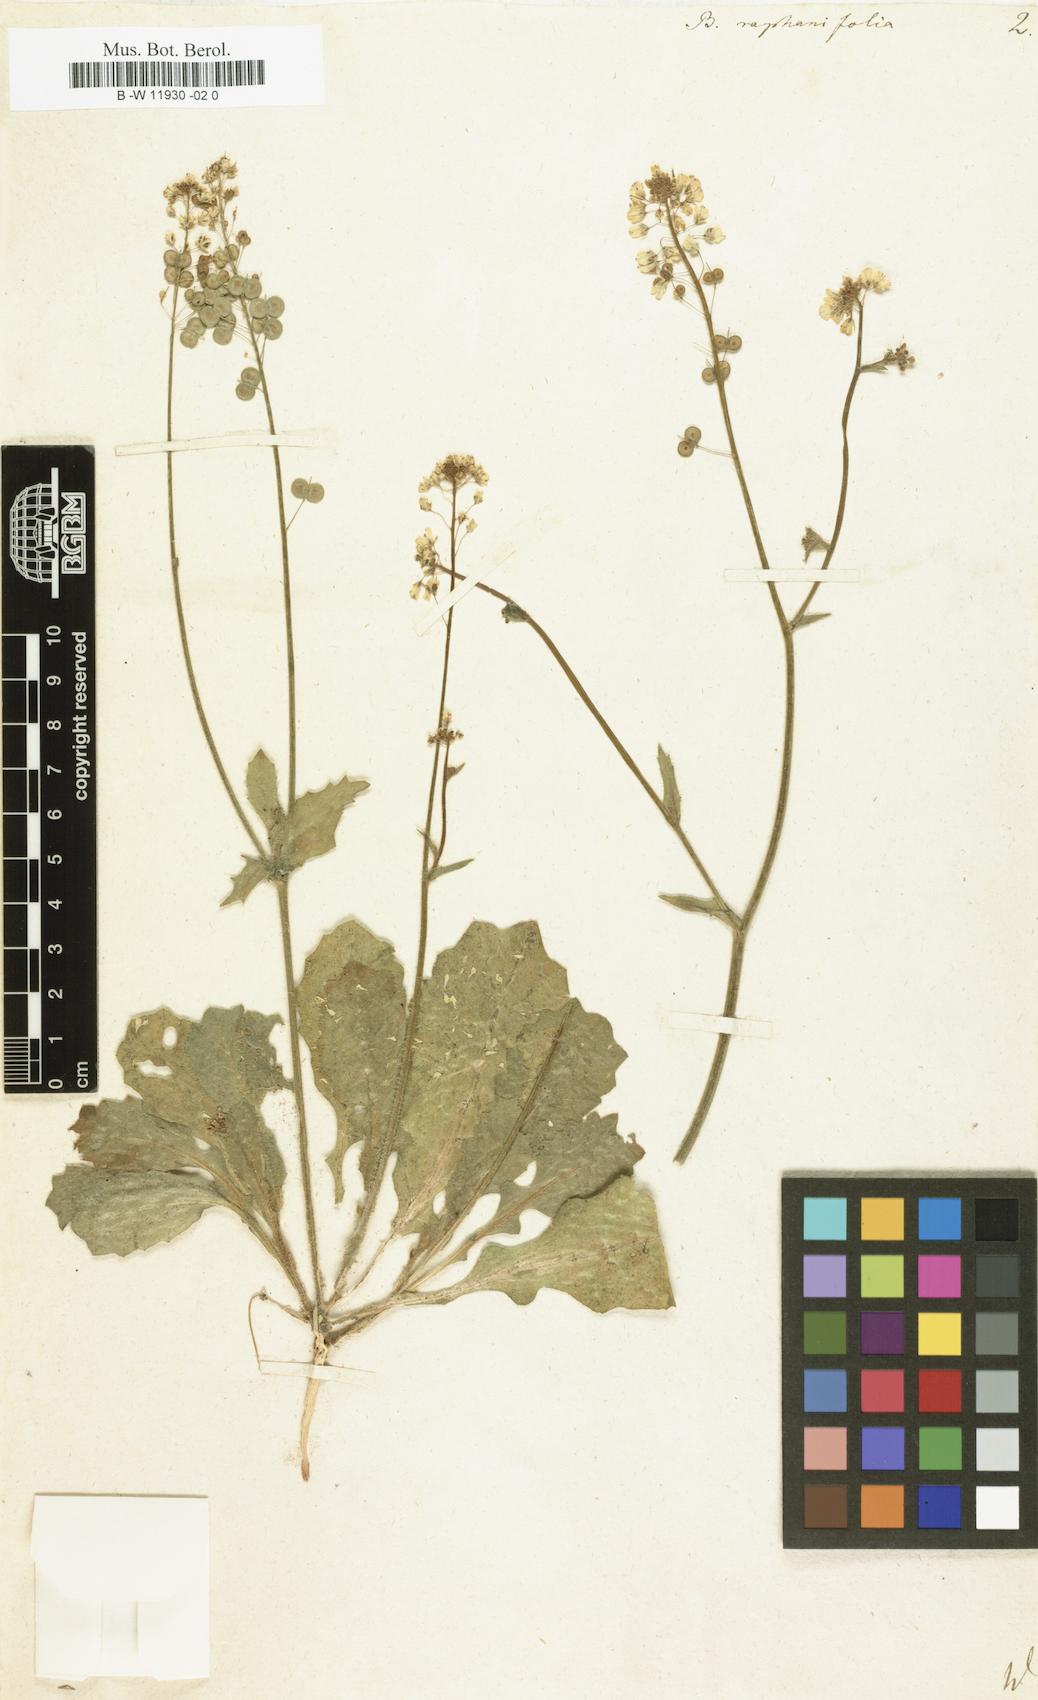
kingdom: Plantae
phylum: Tracheophyta
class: Magnoliopsida
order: Brassicales
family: Brassicaceae
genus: Biscutella
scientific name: Biscutella raphanifolia
